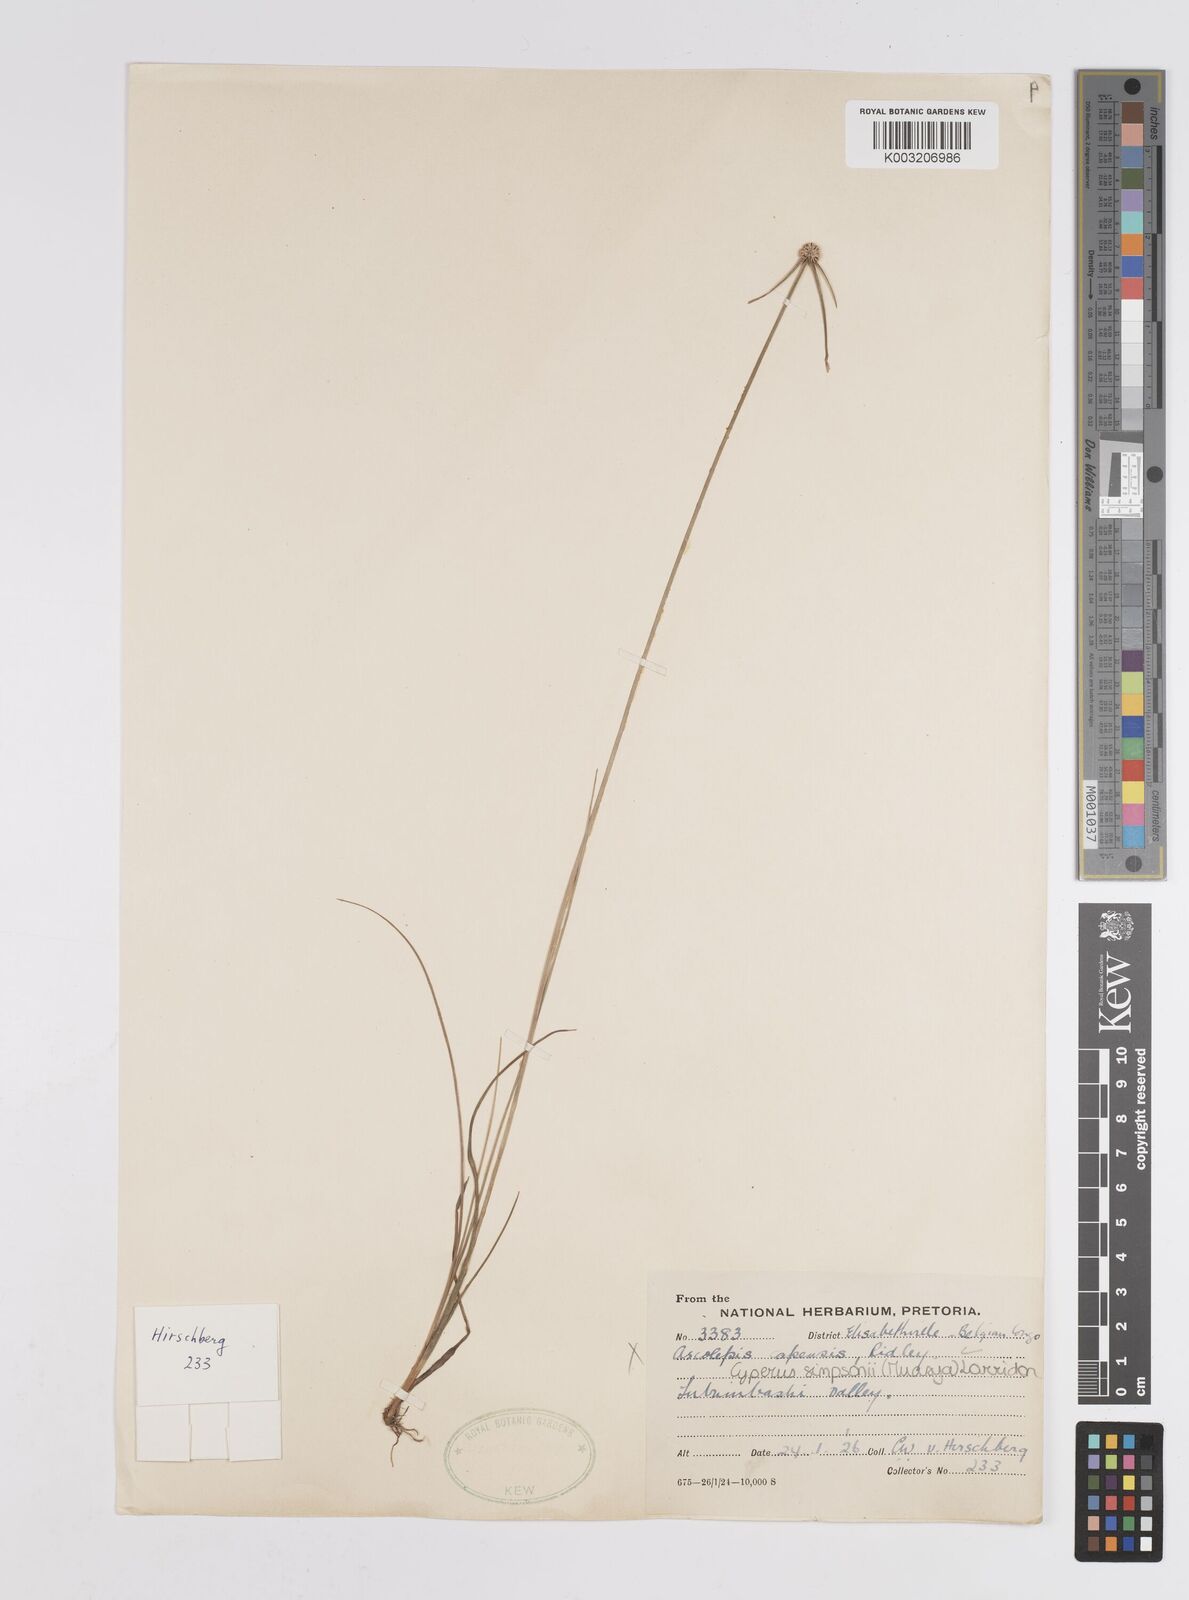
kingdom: Plantae
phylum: Tracheophyta
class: Liliopsida
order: Poales
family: Cyperaceae
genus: Cyperus
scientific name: Cyperus microcephalus
